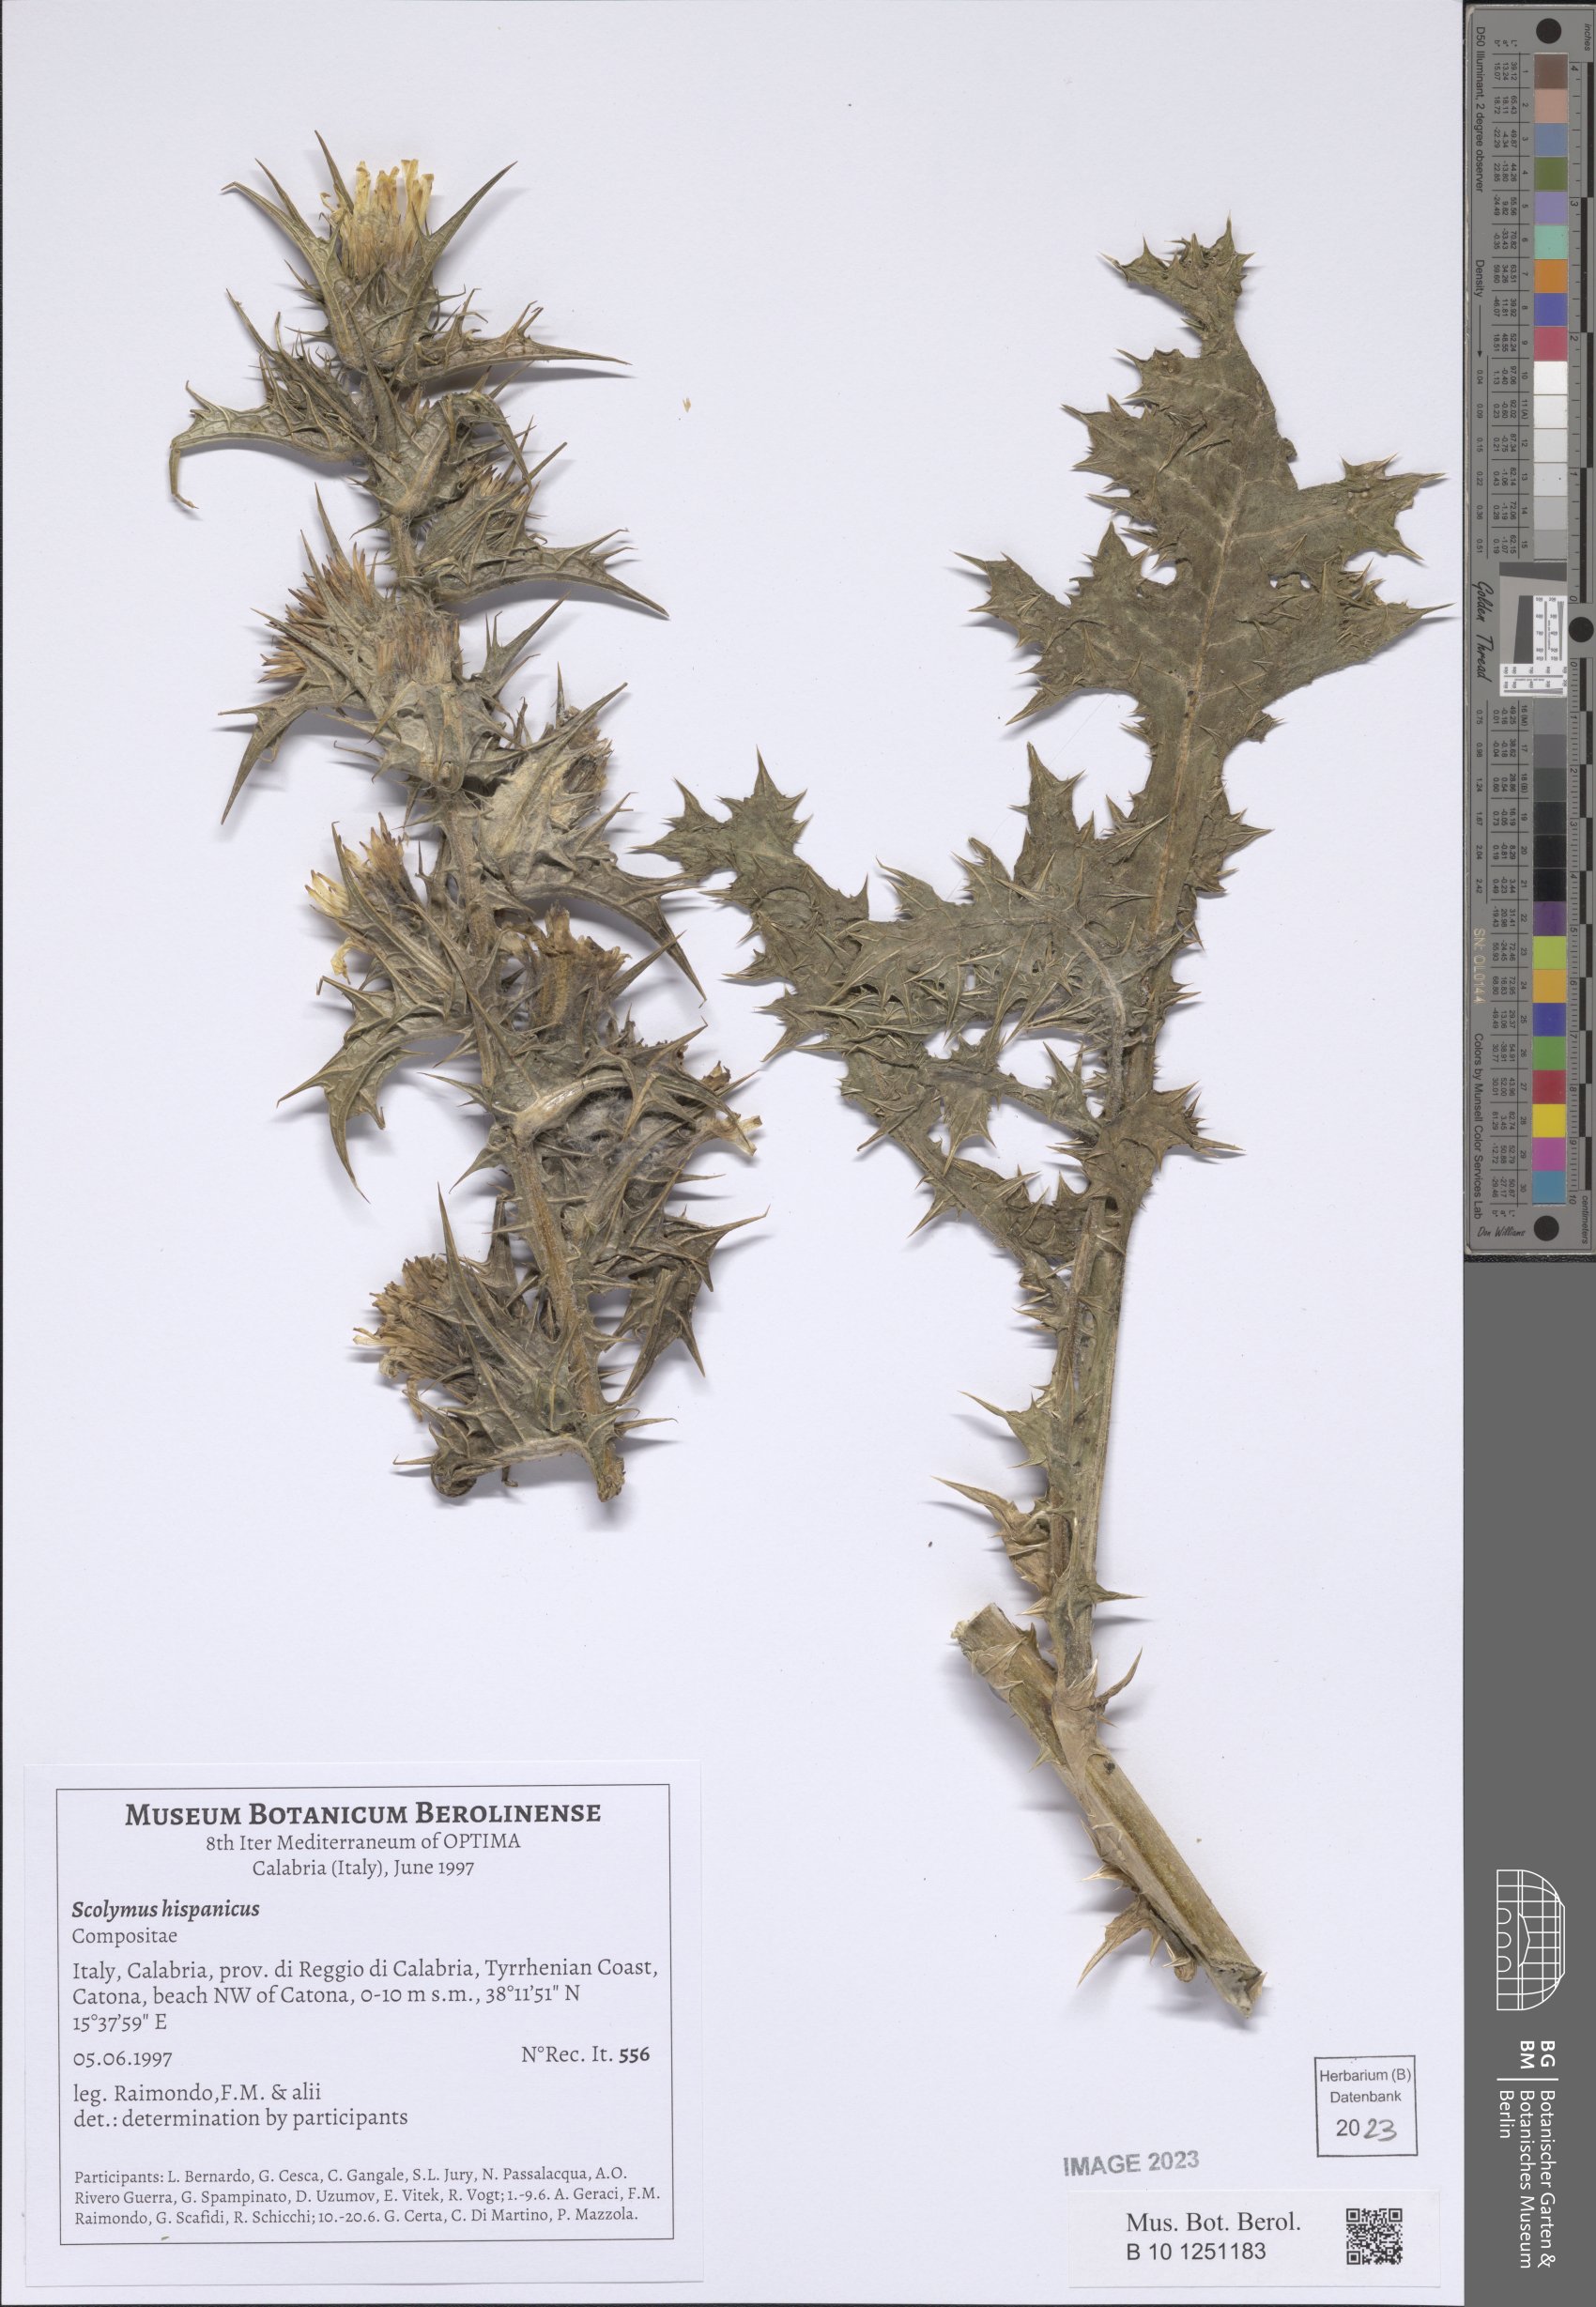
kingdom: Plantae
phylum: Tracheophyta
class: Magnoliopsida
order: Asterales
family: Asteraceae
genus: Scolymus
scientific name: Scolymus hispanicus
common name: Golden thistle
